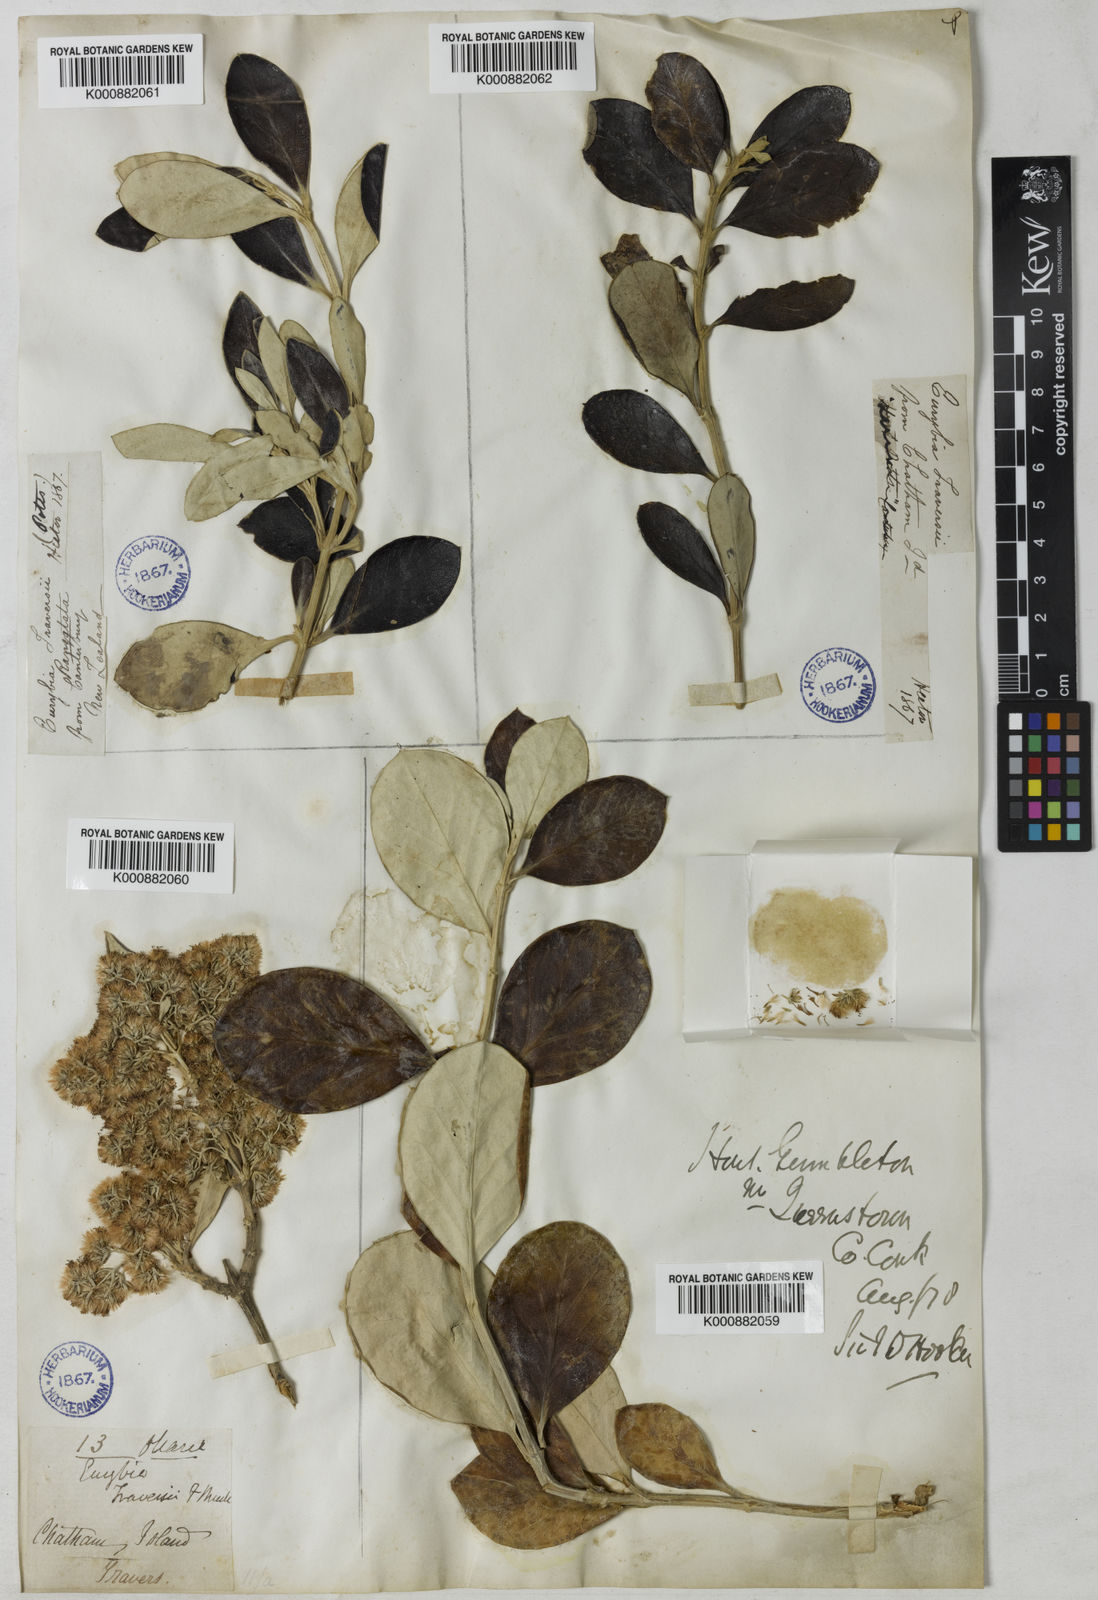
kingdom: Plantae
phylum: Tracheophyta
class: Magnoliopsida
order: Asterales
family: Asteraceae
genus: Olearia
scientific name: Olearia
